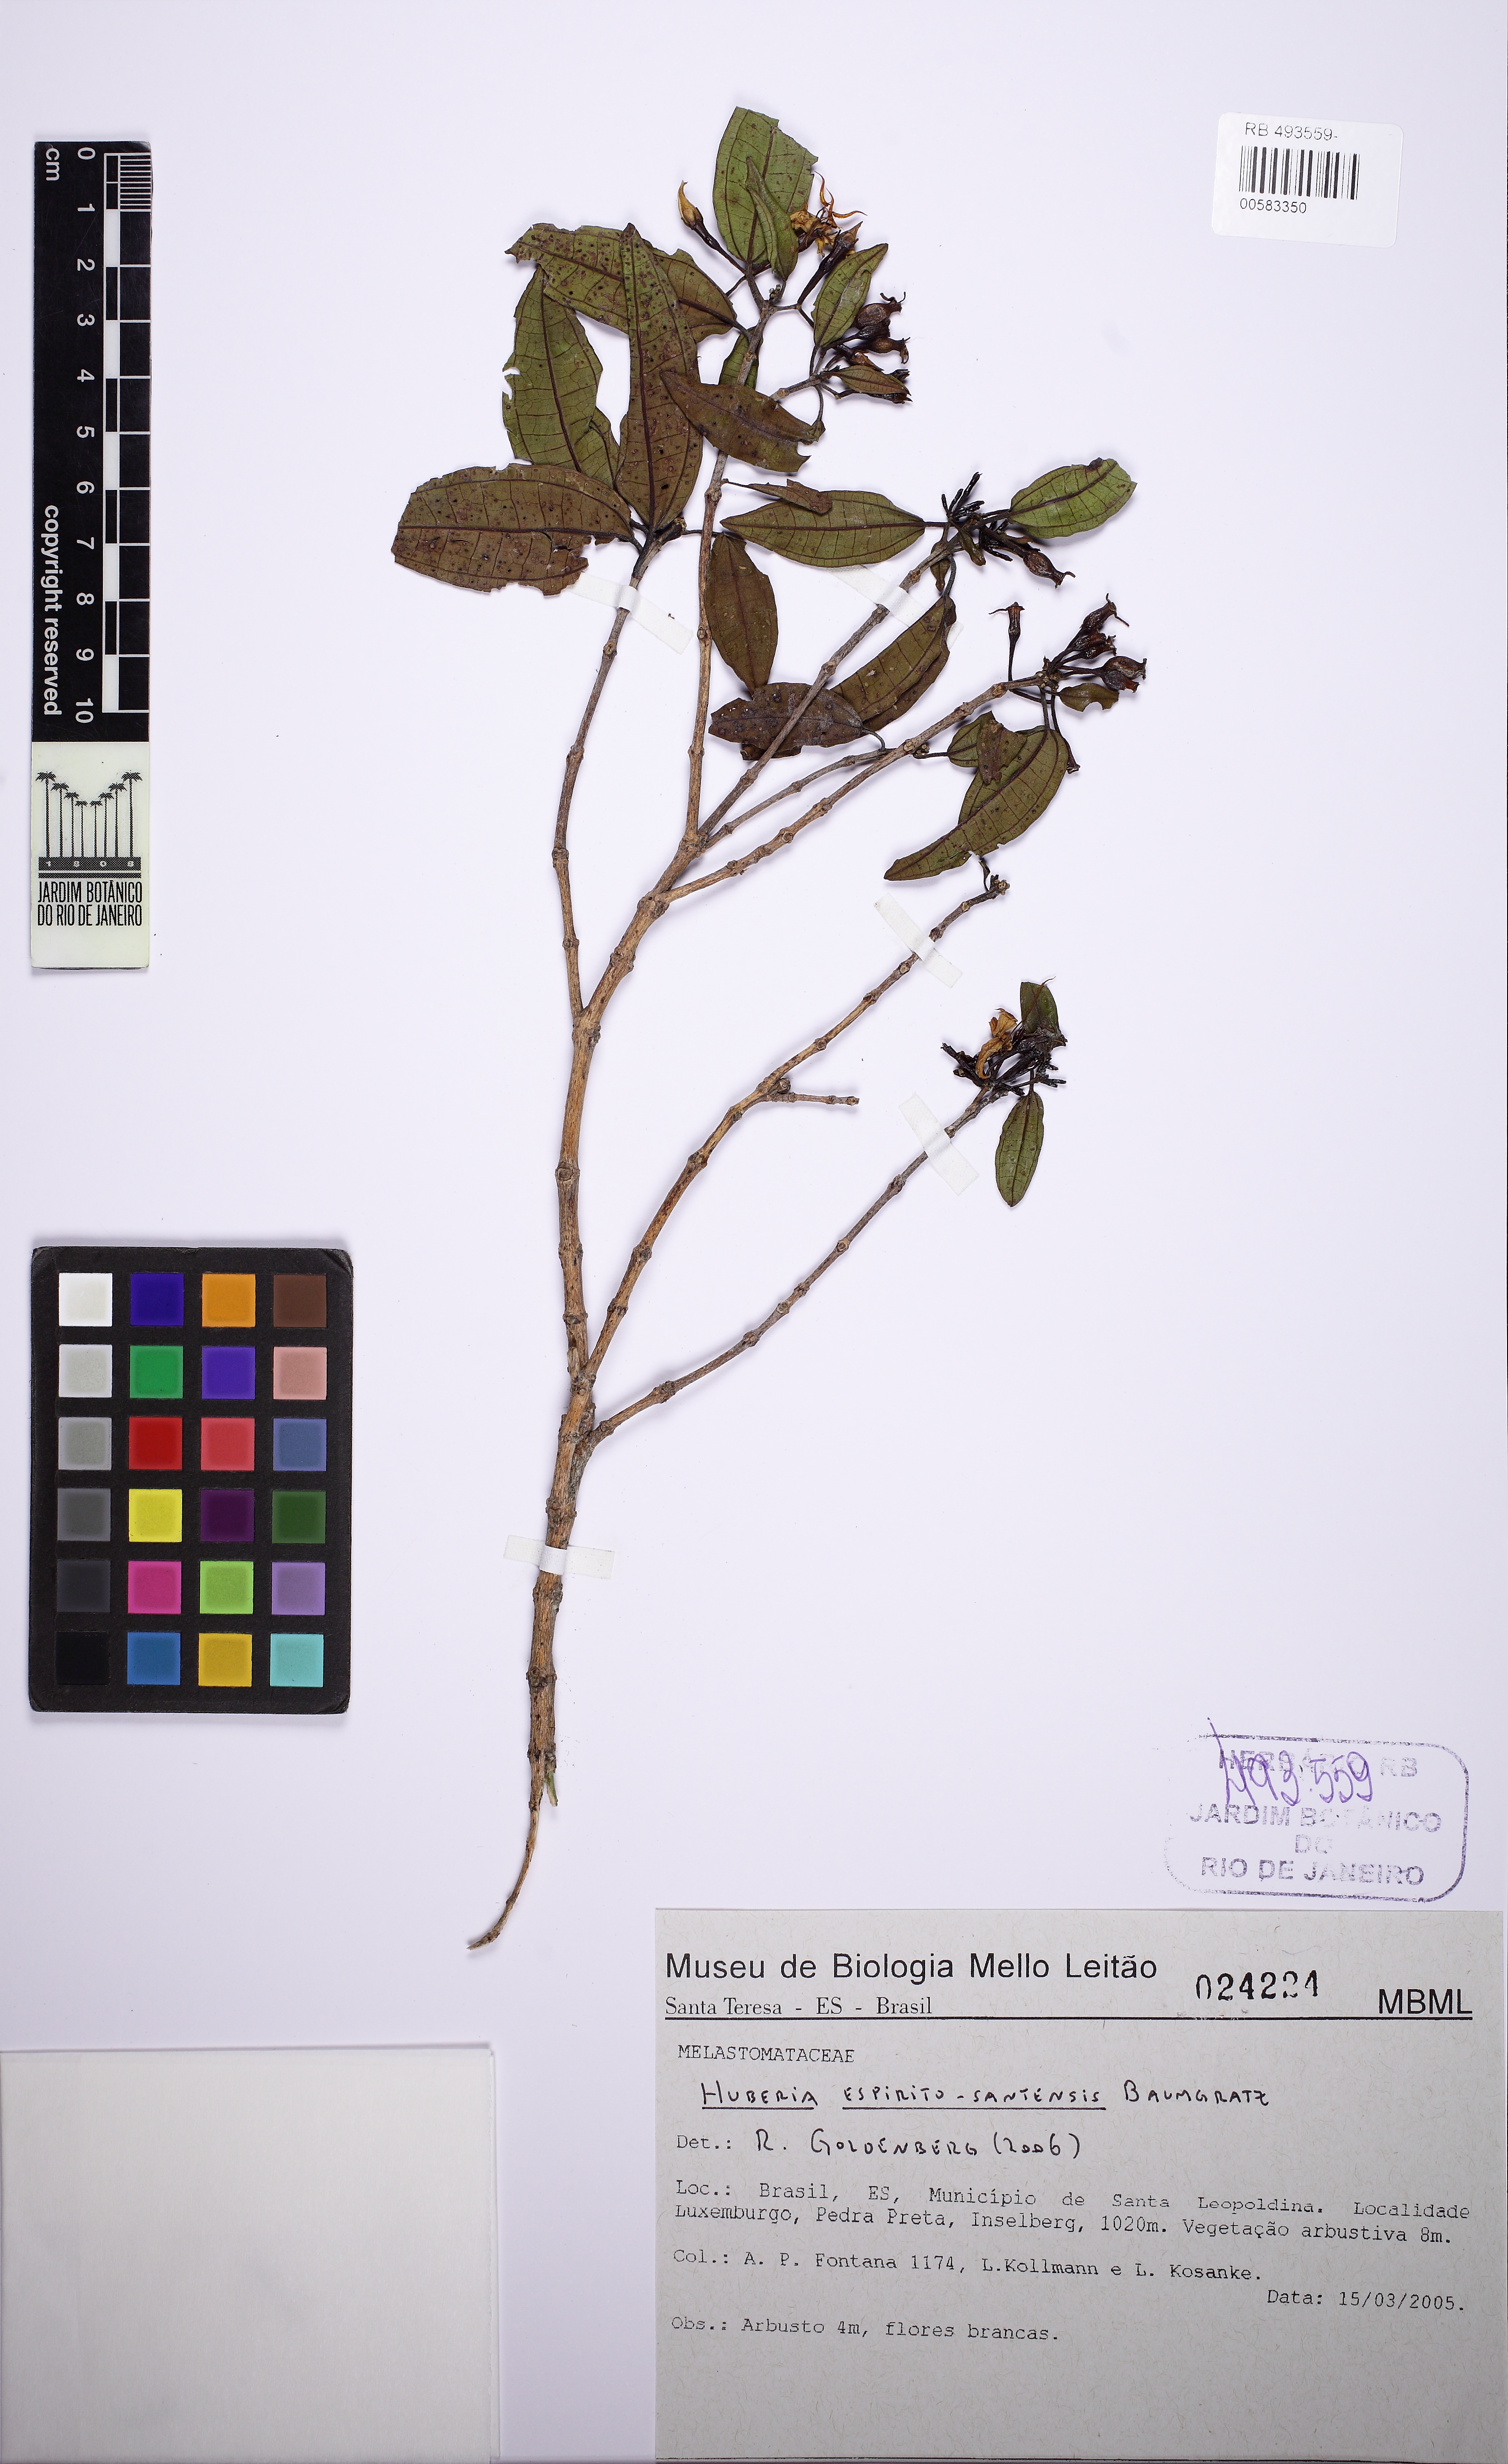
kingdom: Plantae
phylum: Tracheophyta
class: Magnoliopsida
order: Myrtales
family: Melastomataceae
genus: Huberia
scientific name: Huberia espiritosantensis
